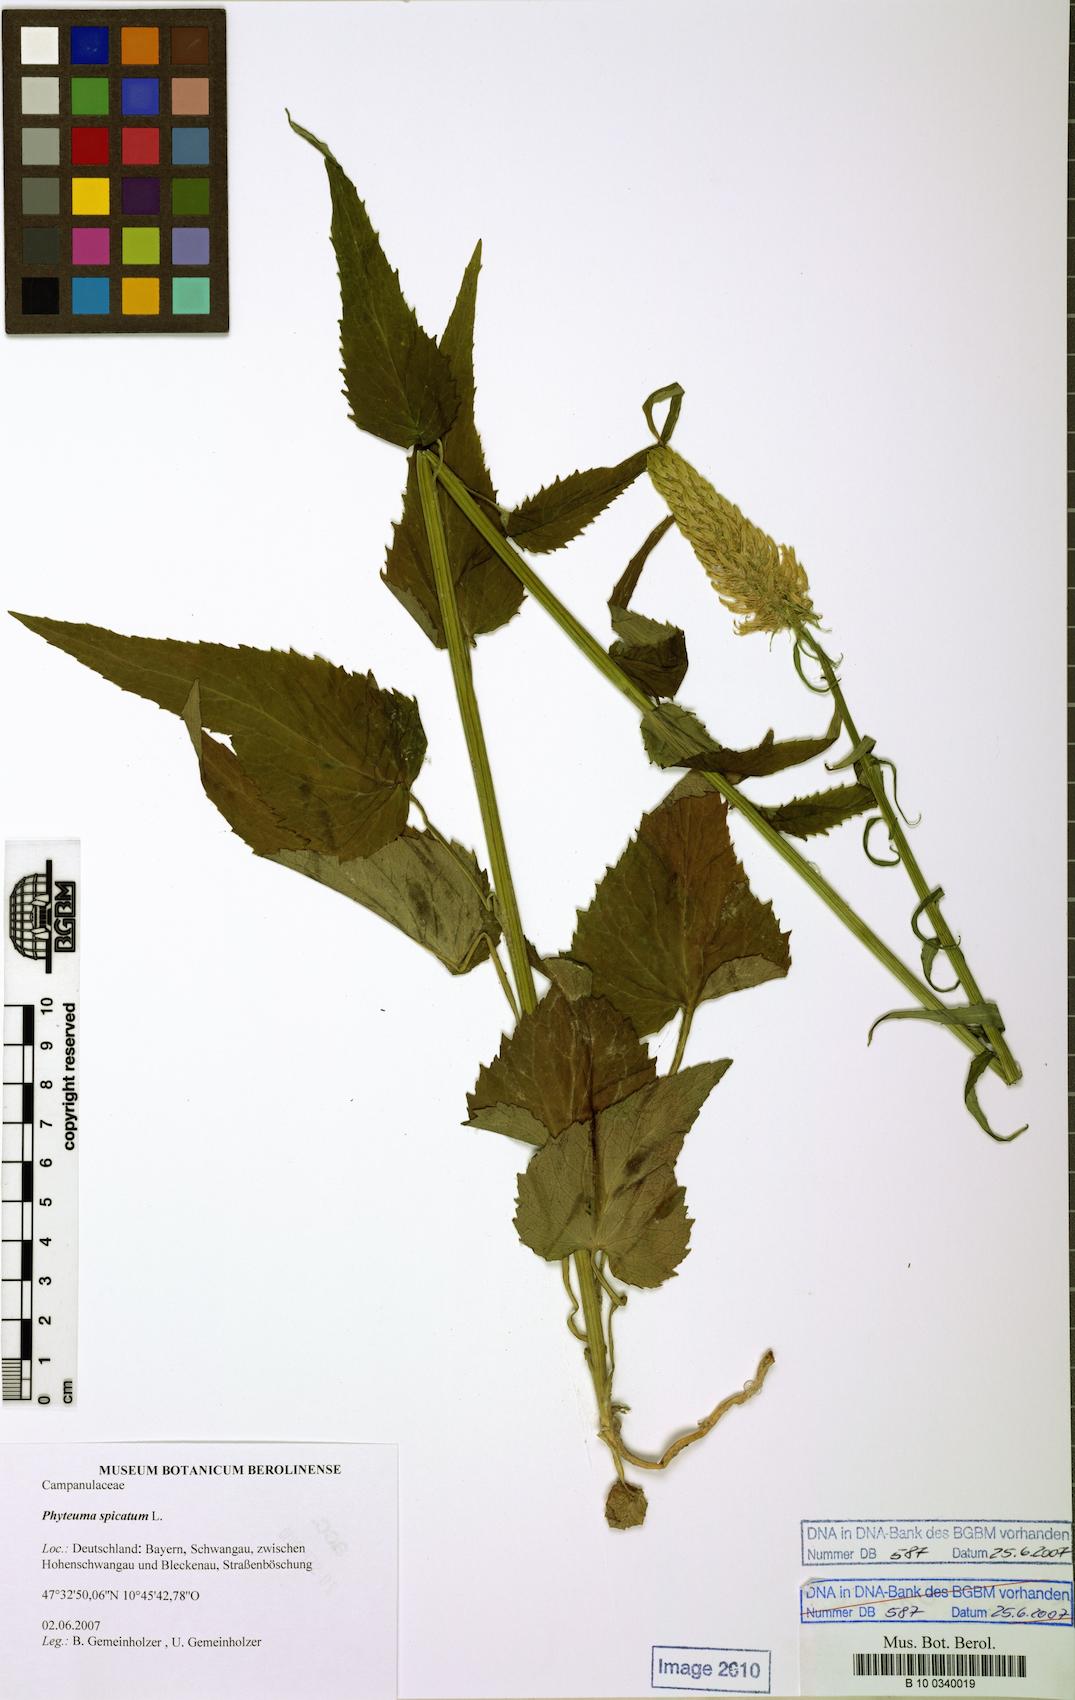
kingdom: Plantae
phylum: Tracheophyta
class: Magnoliopsida
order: Asterales
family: Campanulaceae
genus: Phyteuma
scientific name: Phyteuma spicatum
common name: Spiked rampion
